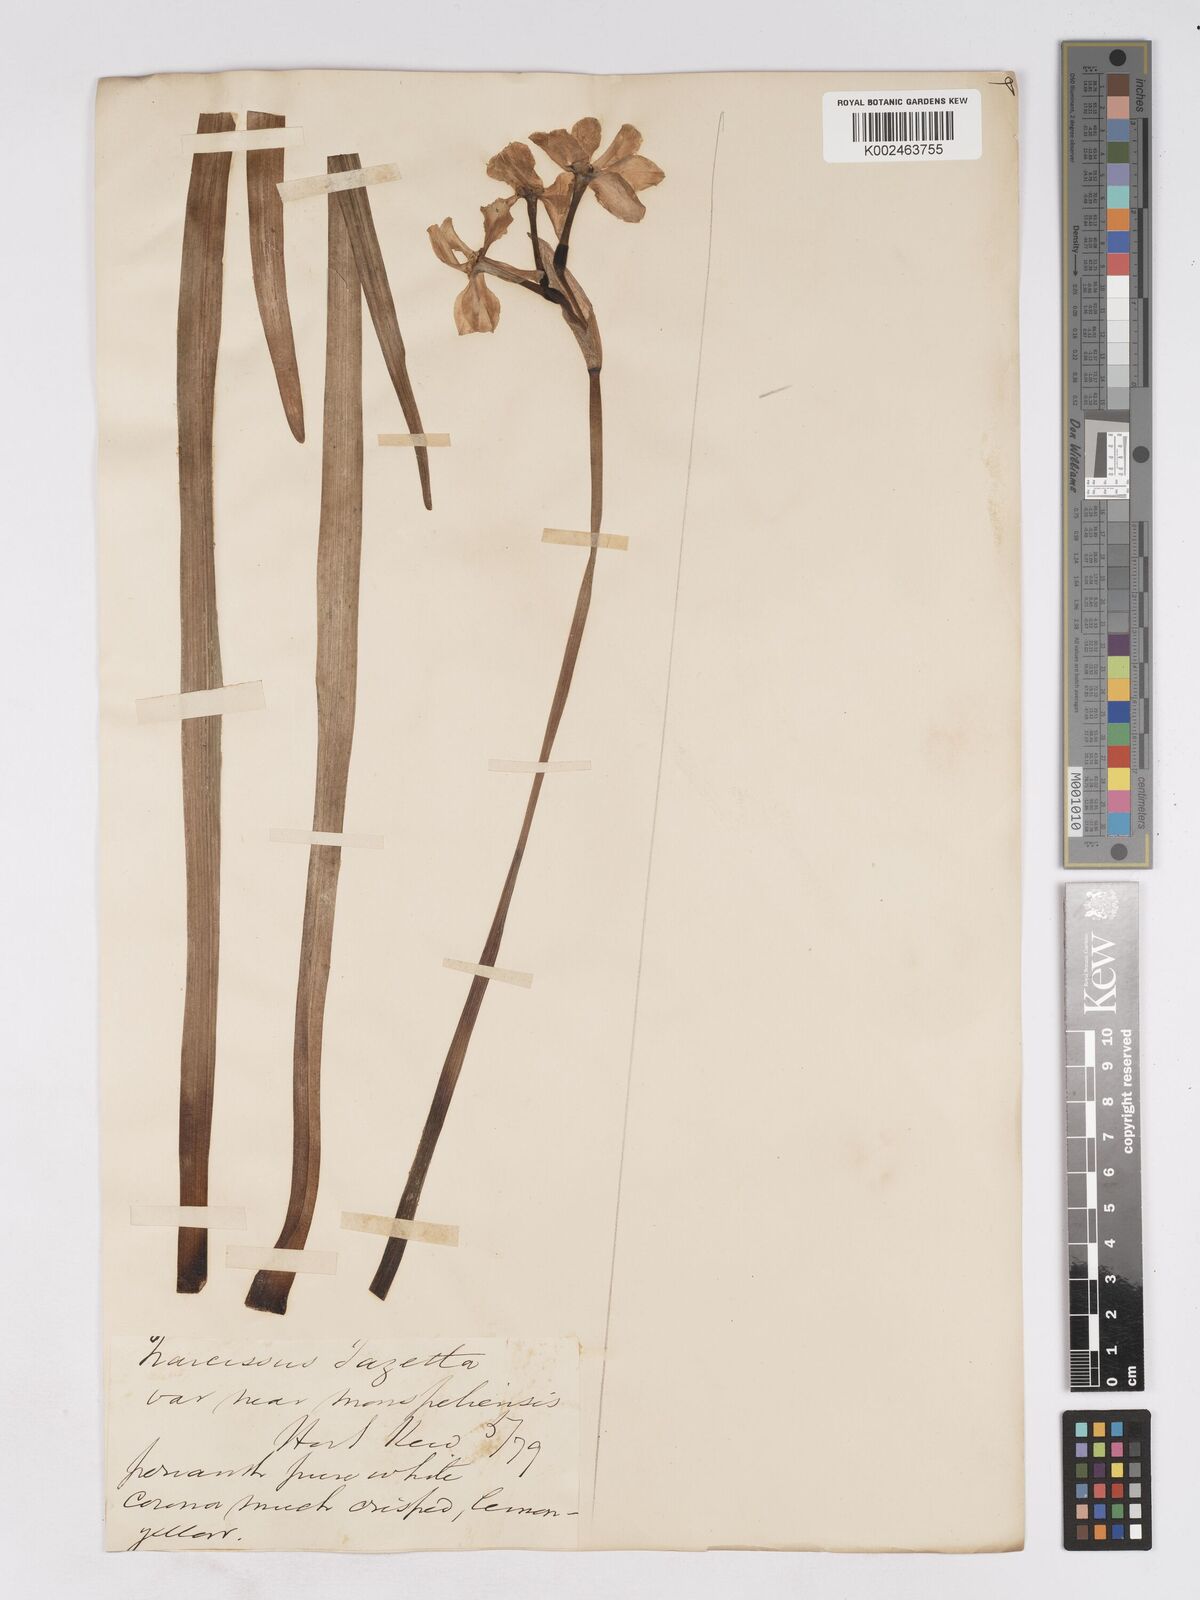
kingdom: Plantae
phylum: Tracheophyta
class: Liliopsida
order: Asparagales
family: Amaryllidaceae
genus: Narcissus
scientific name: Narcissus
